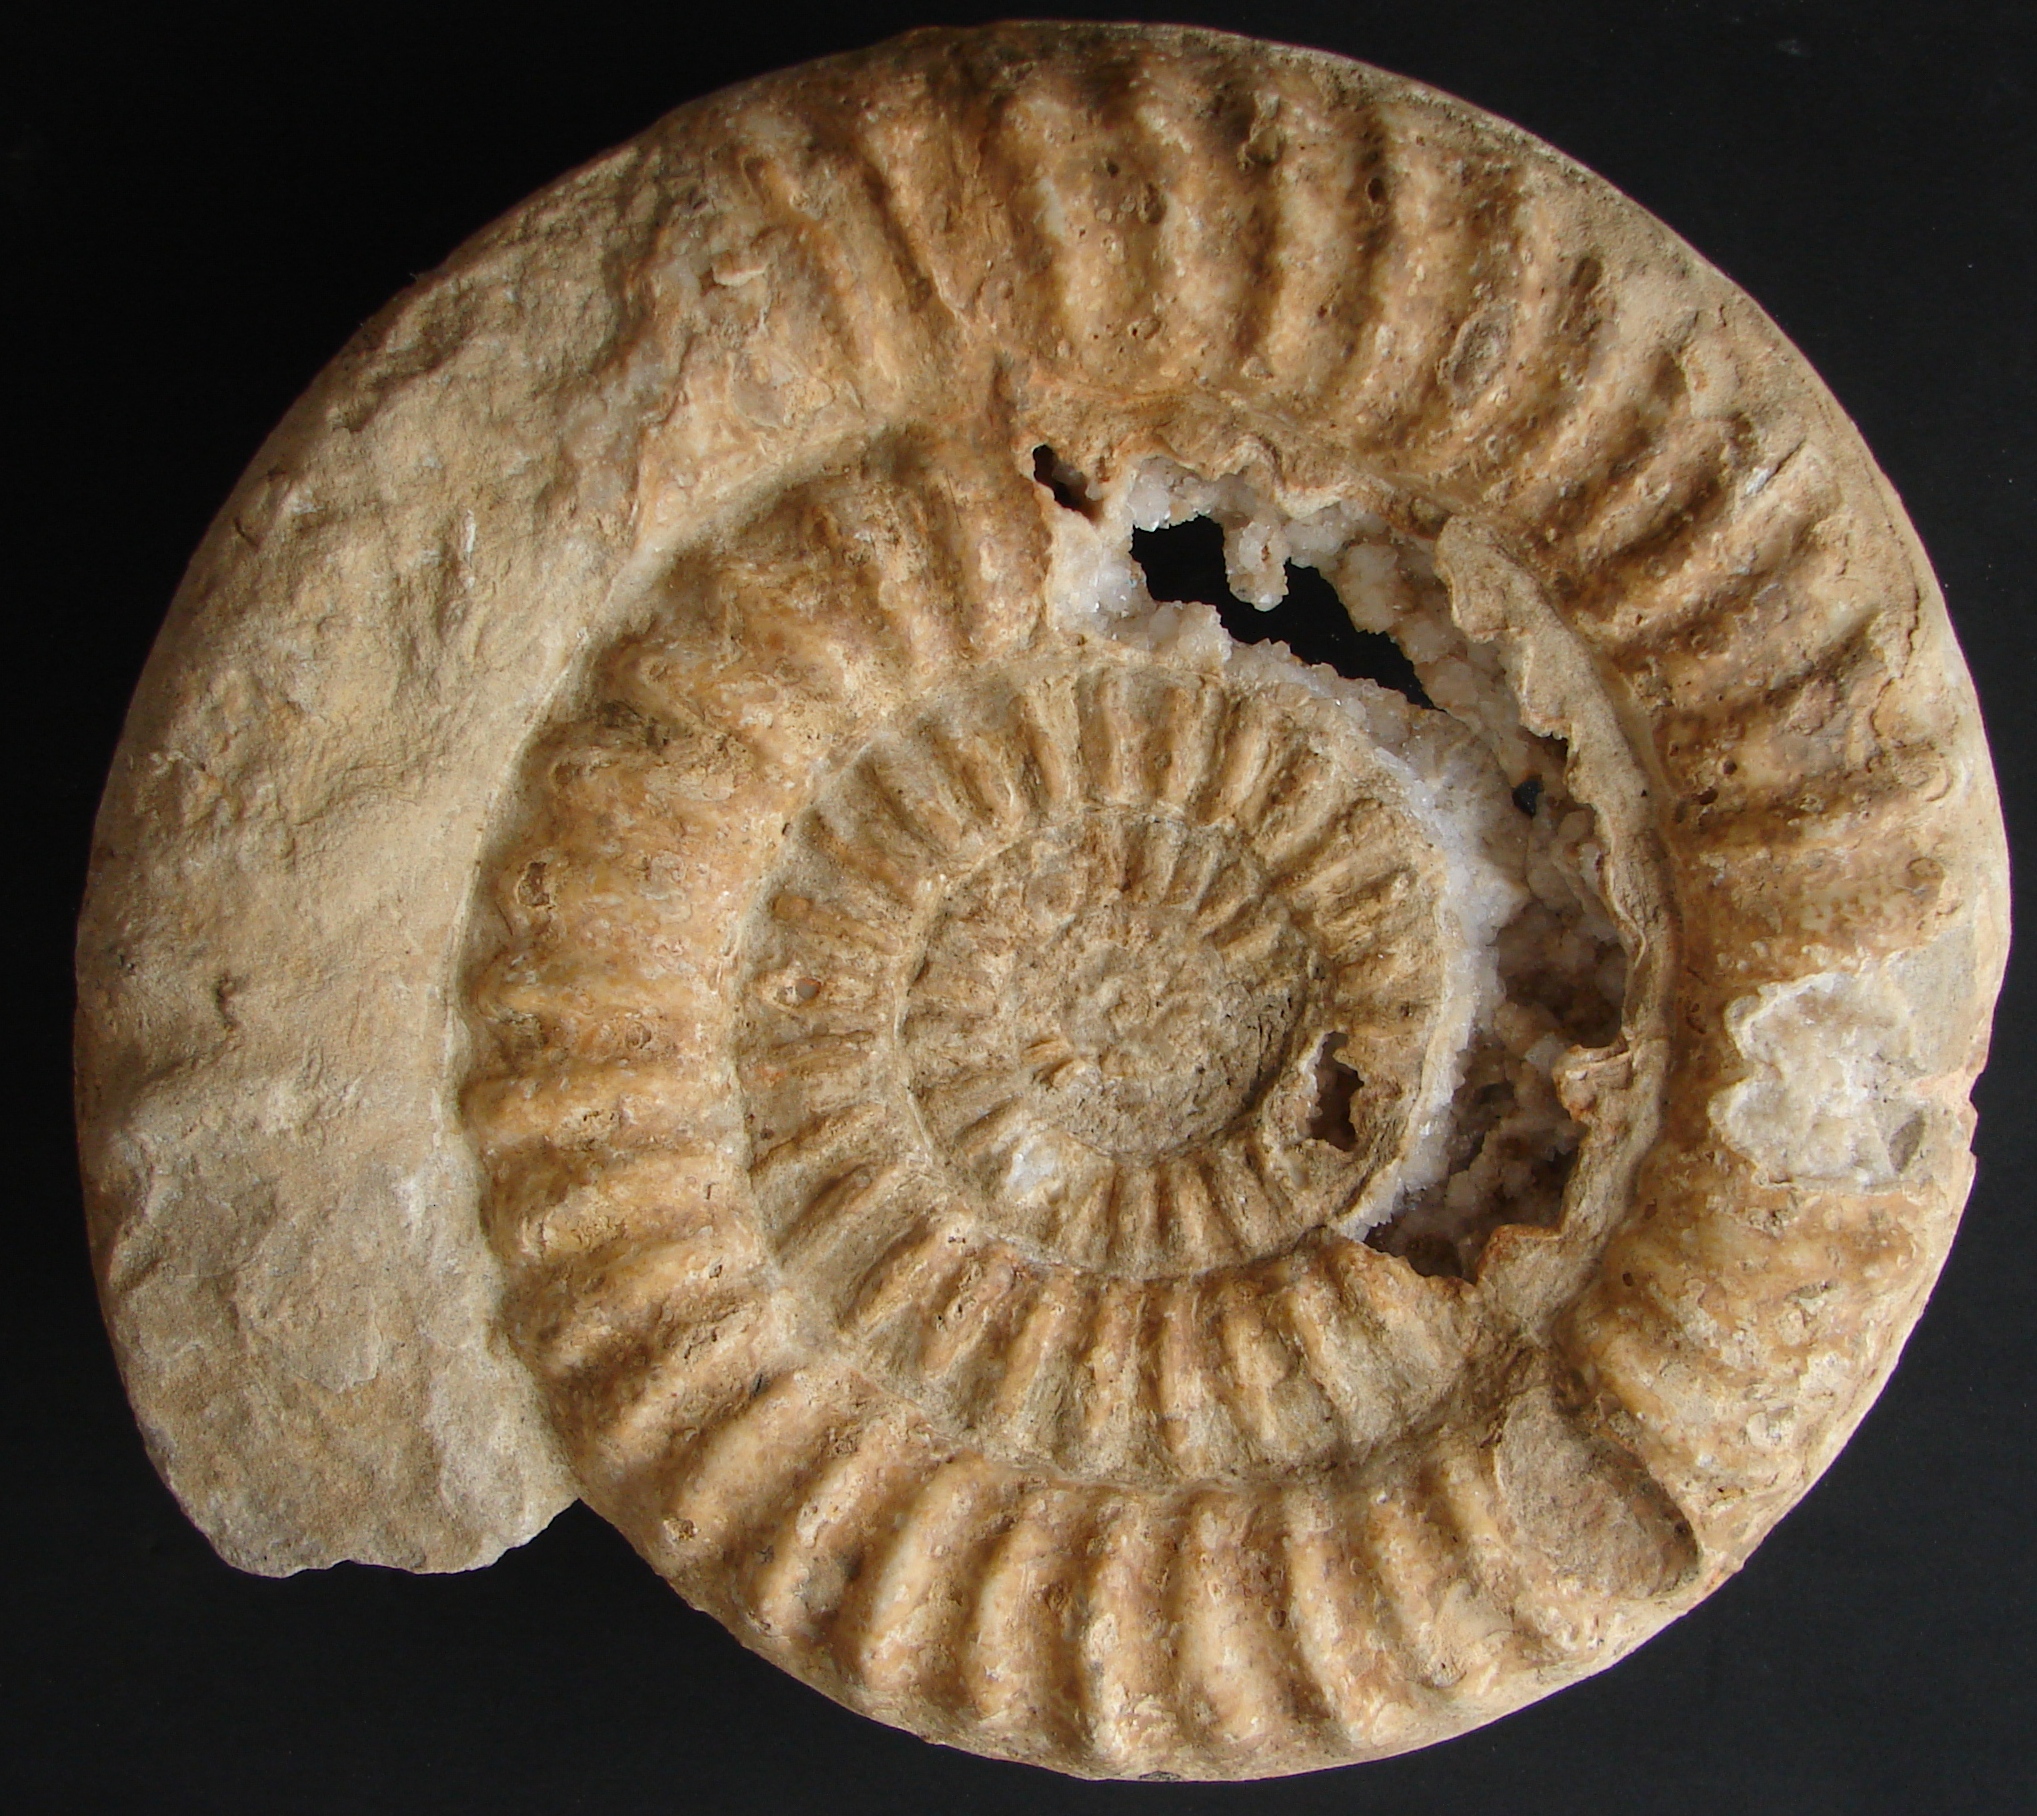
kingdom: Animalia
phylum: Mollusca
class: Cephalopoda
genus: Ammonites
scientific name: Ammonites kridion
